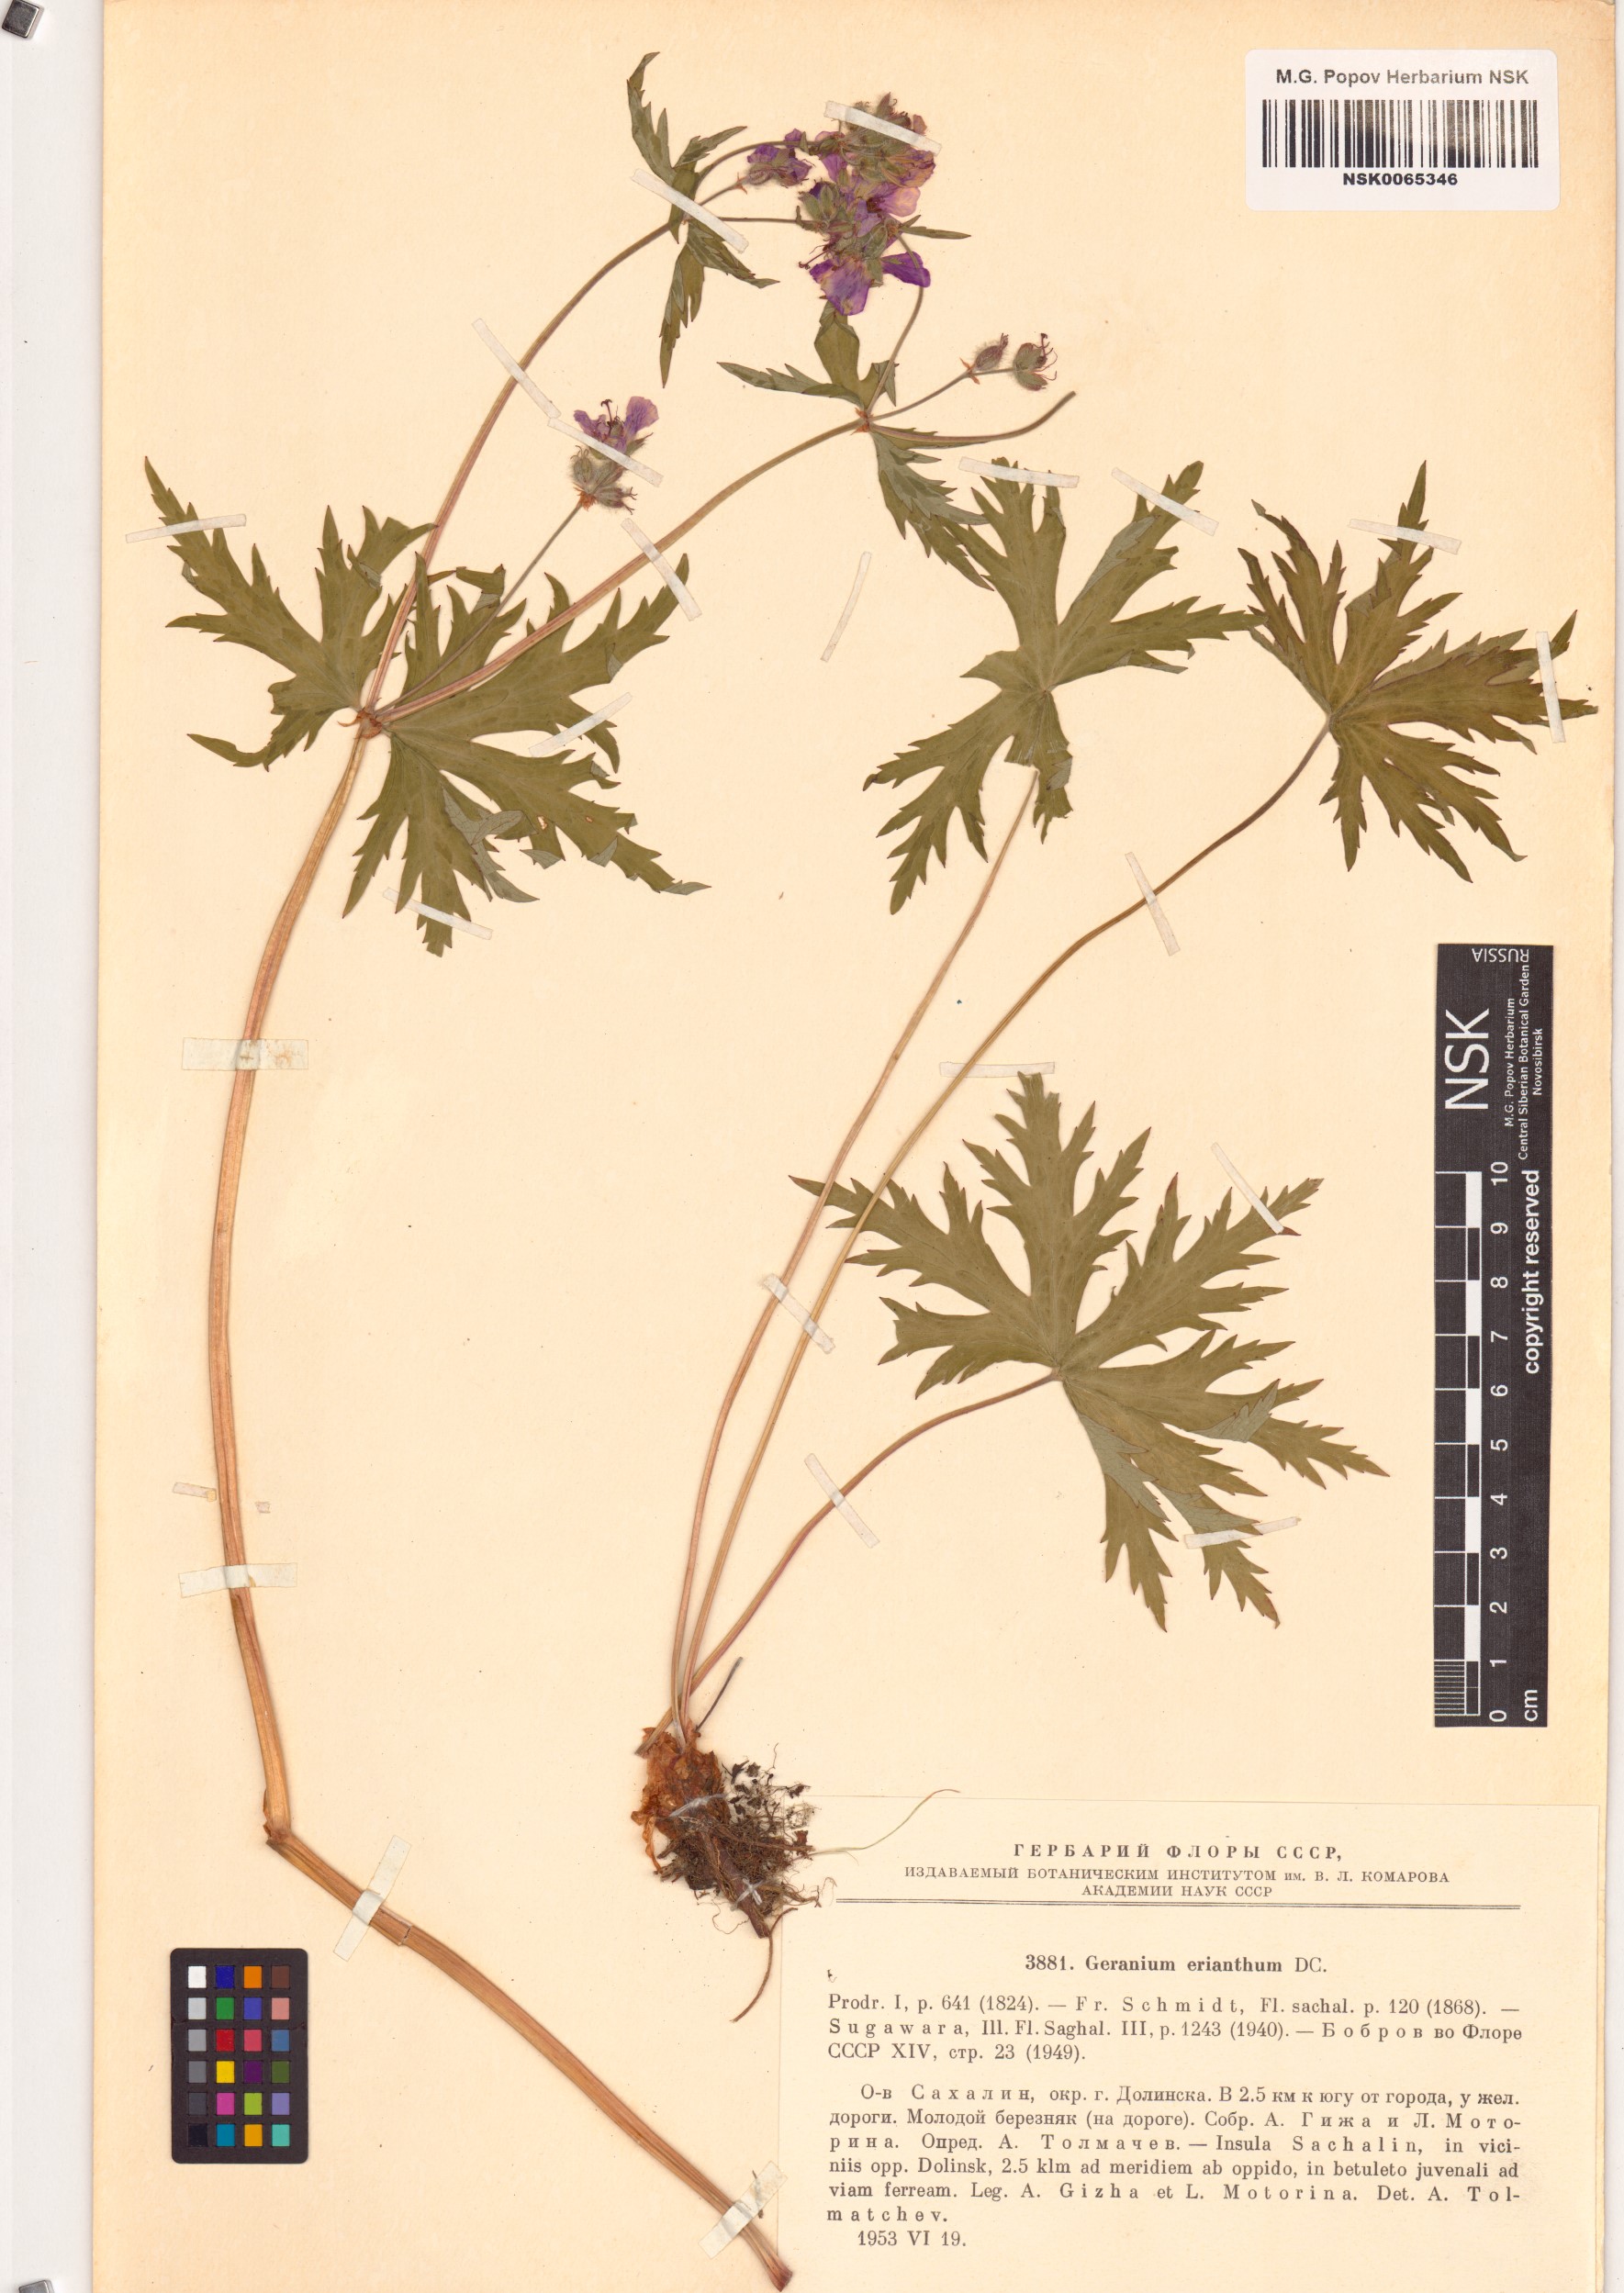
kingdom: Plantae
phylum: Tracheophyta
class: Magnoliopsida
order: Geraniales
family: Geraniaceae
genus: Geranium
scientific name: Geranium erianthum
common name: Northern crane's-bill
